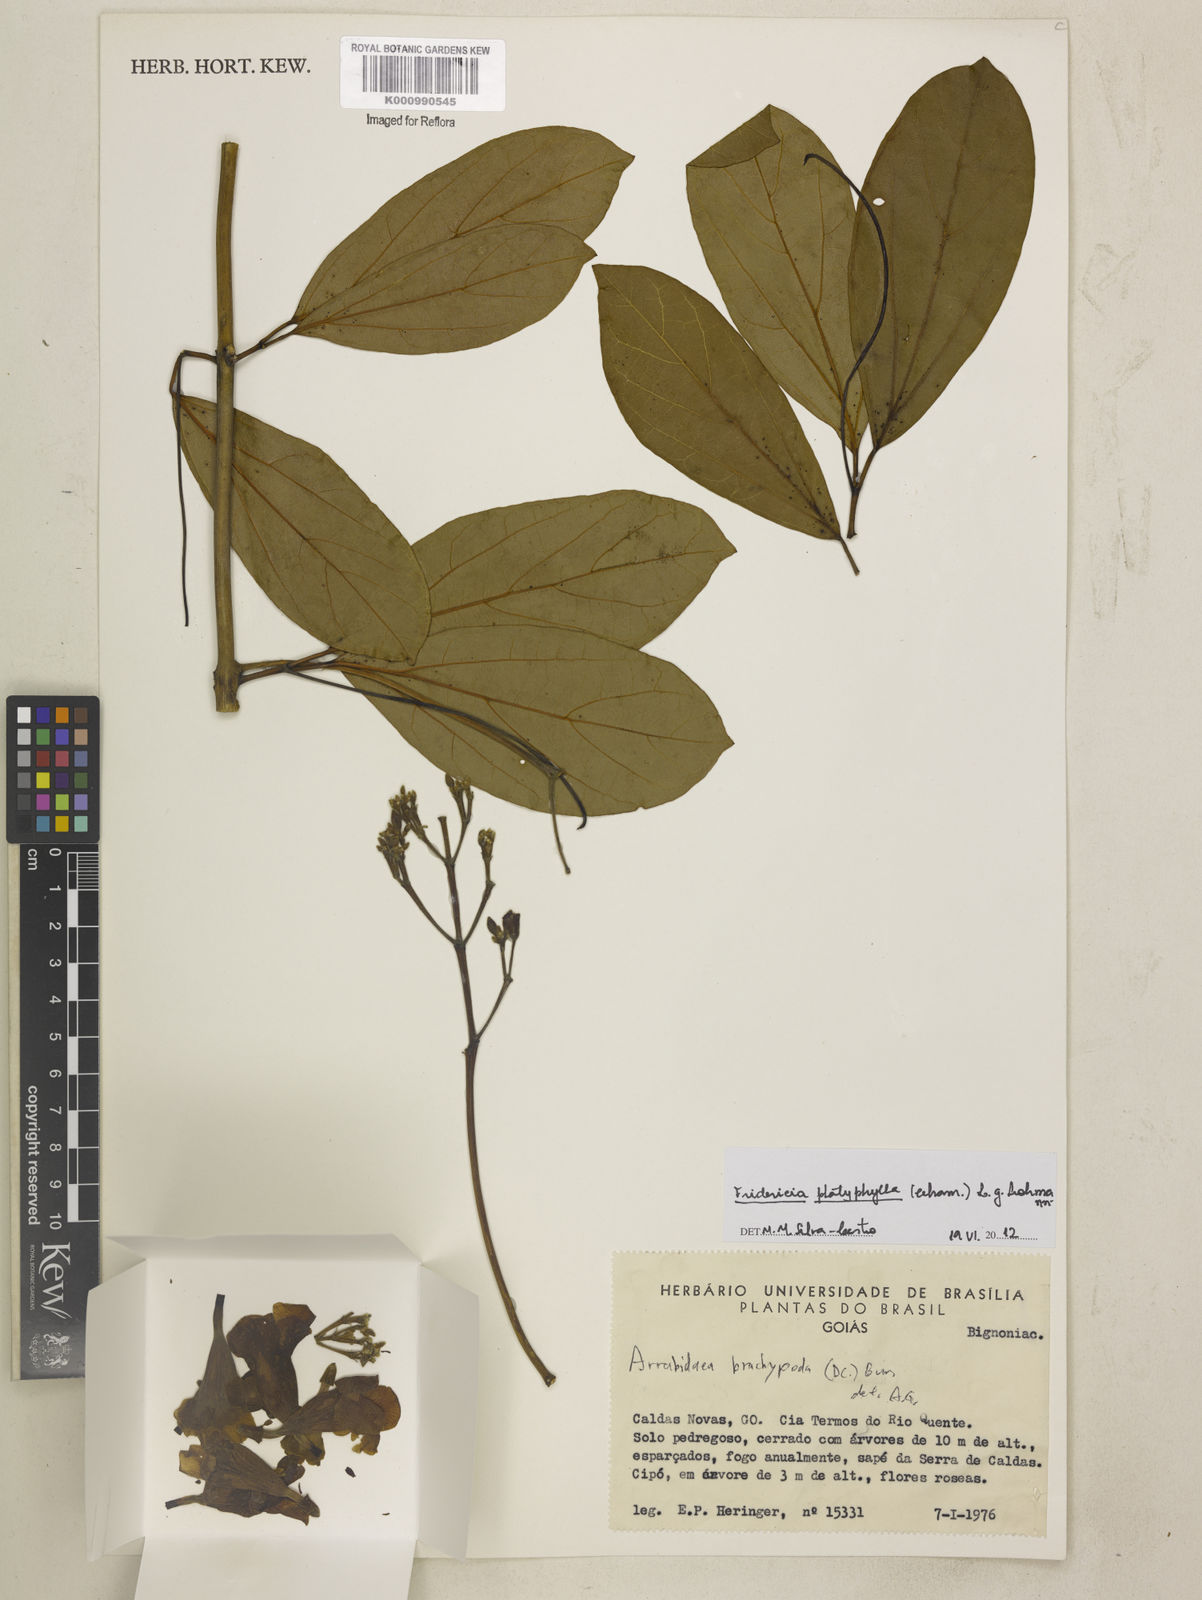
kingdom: Plantae
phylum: Tracheophyta
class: Magnoliopsida
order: Lamiales
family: Bignoniaceae
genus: Fridericia
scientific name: Fridericia platyphylla
